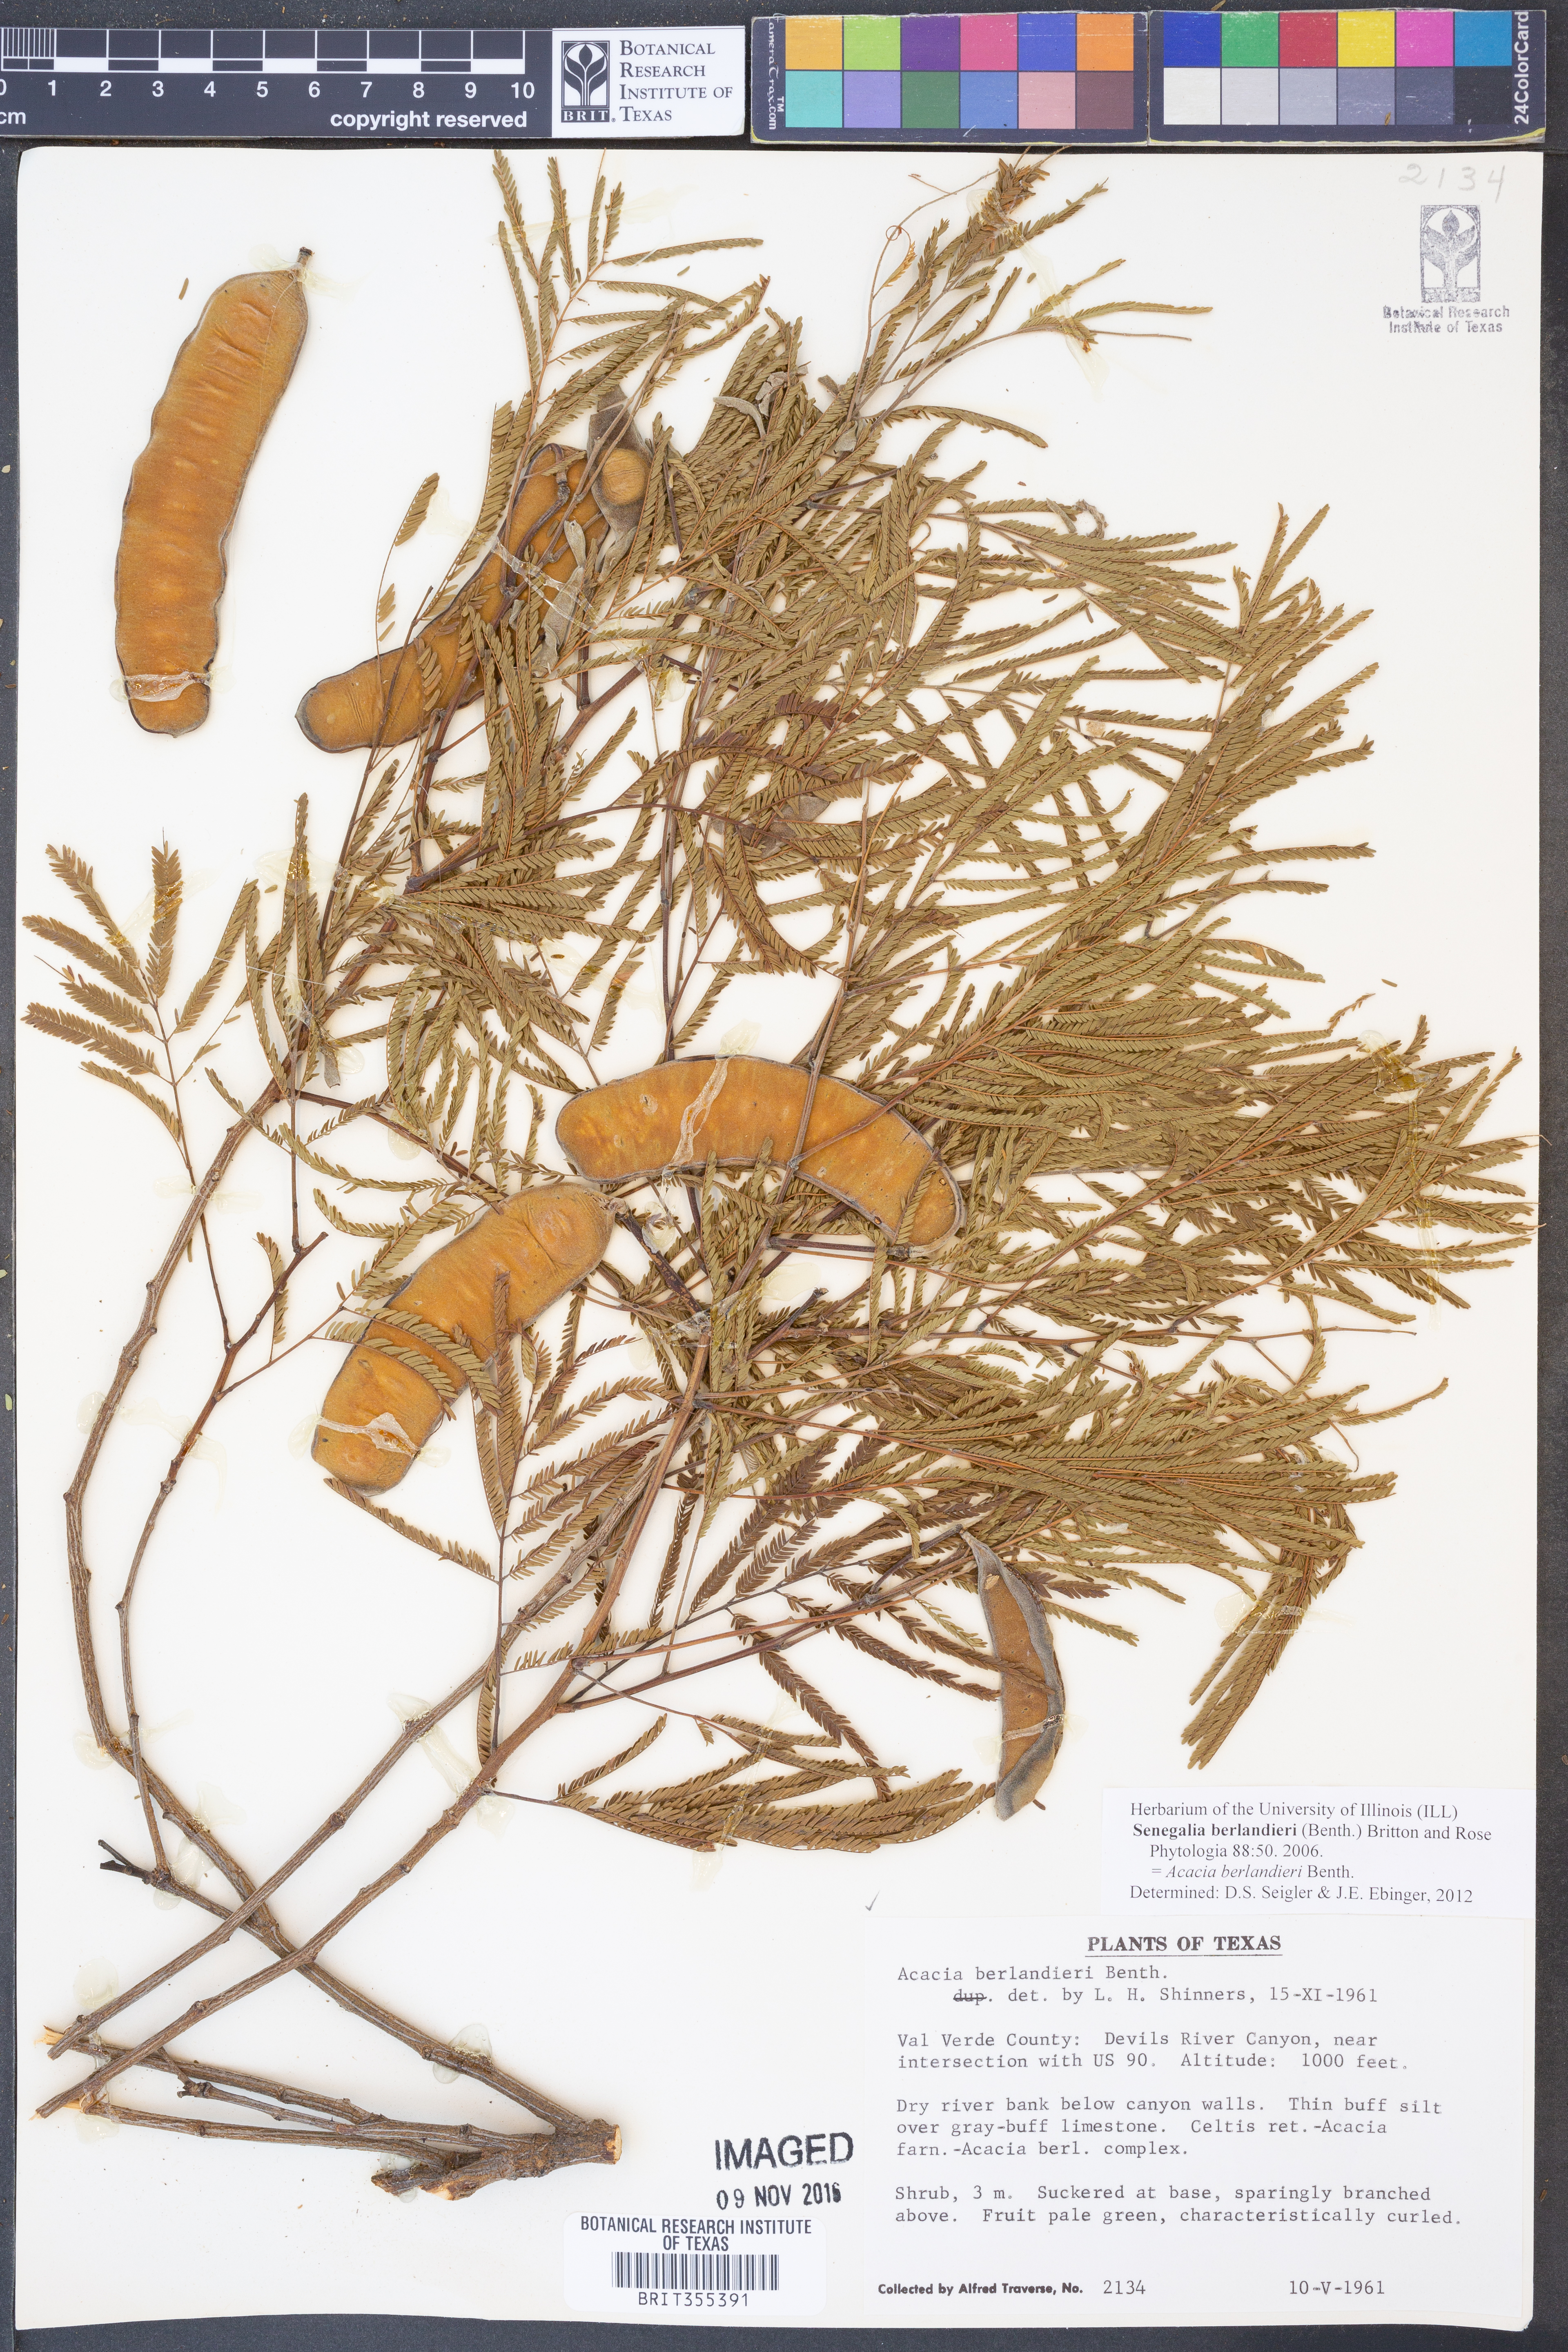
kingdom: Plantae
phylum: Tracheophyta
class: Magnoliopsida
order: Fabales
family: Fabaceae
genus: Senegalia
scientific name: Senegalia berlandieri
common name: Berlandier acacia
